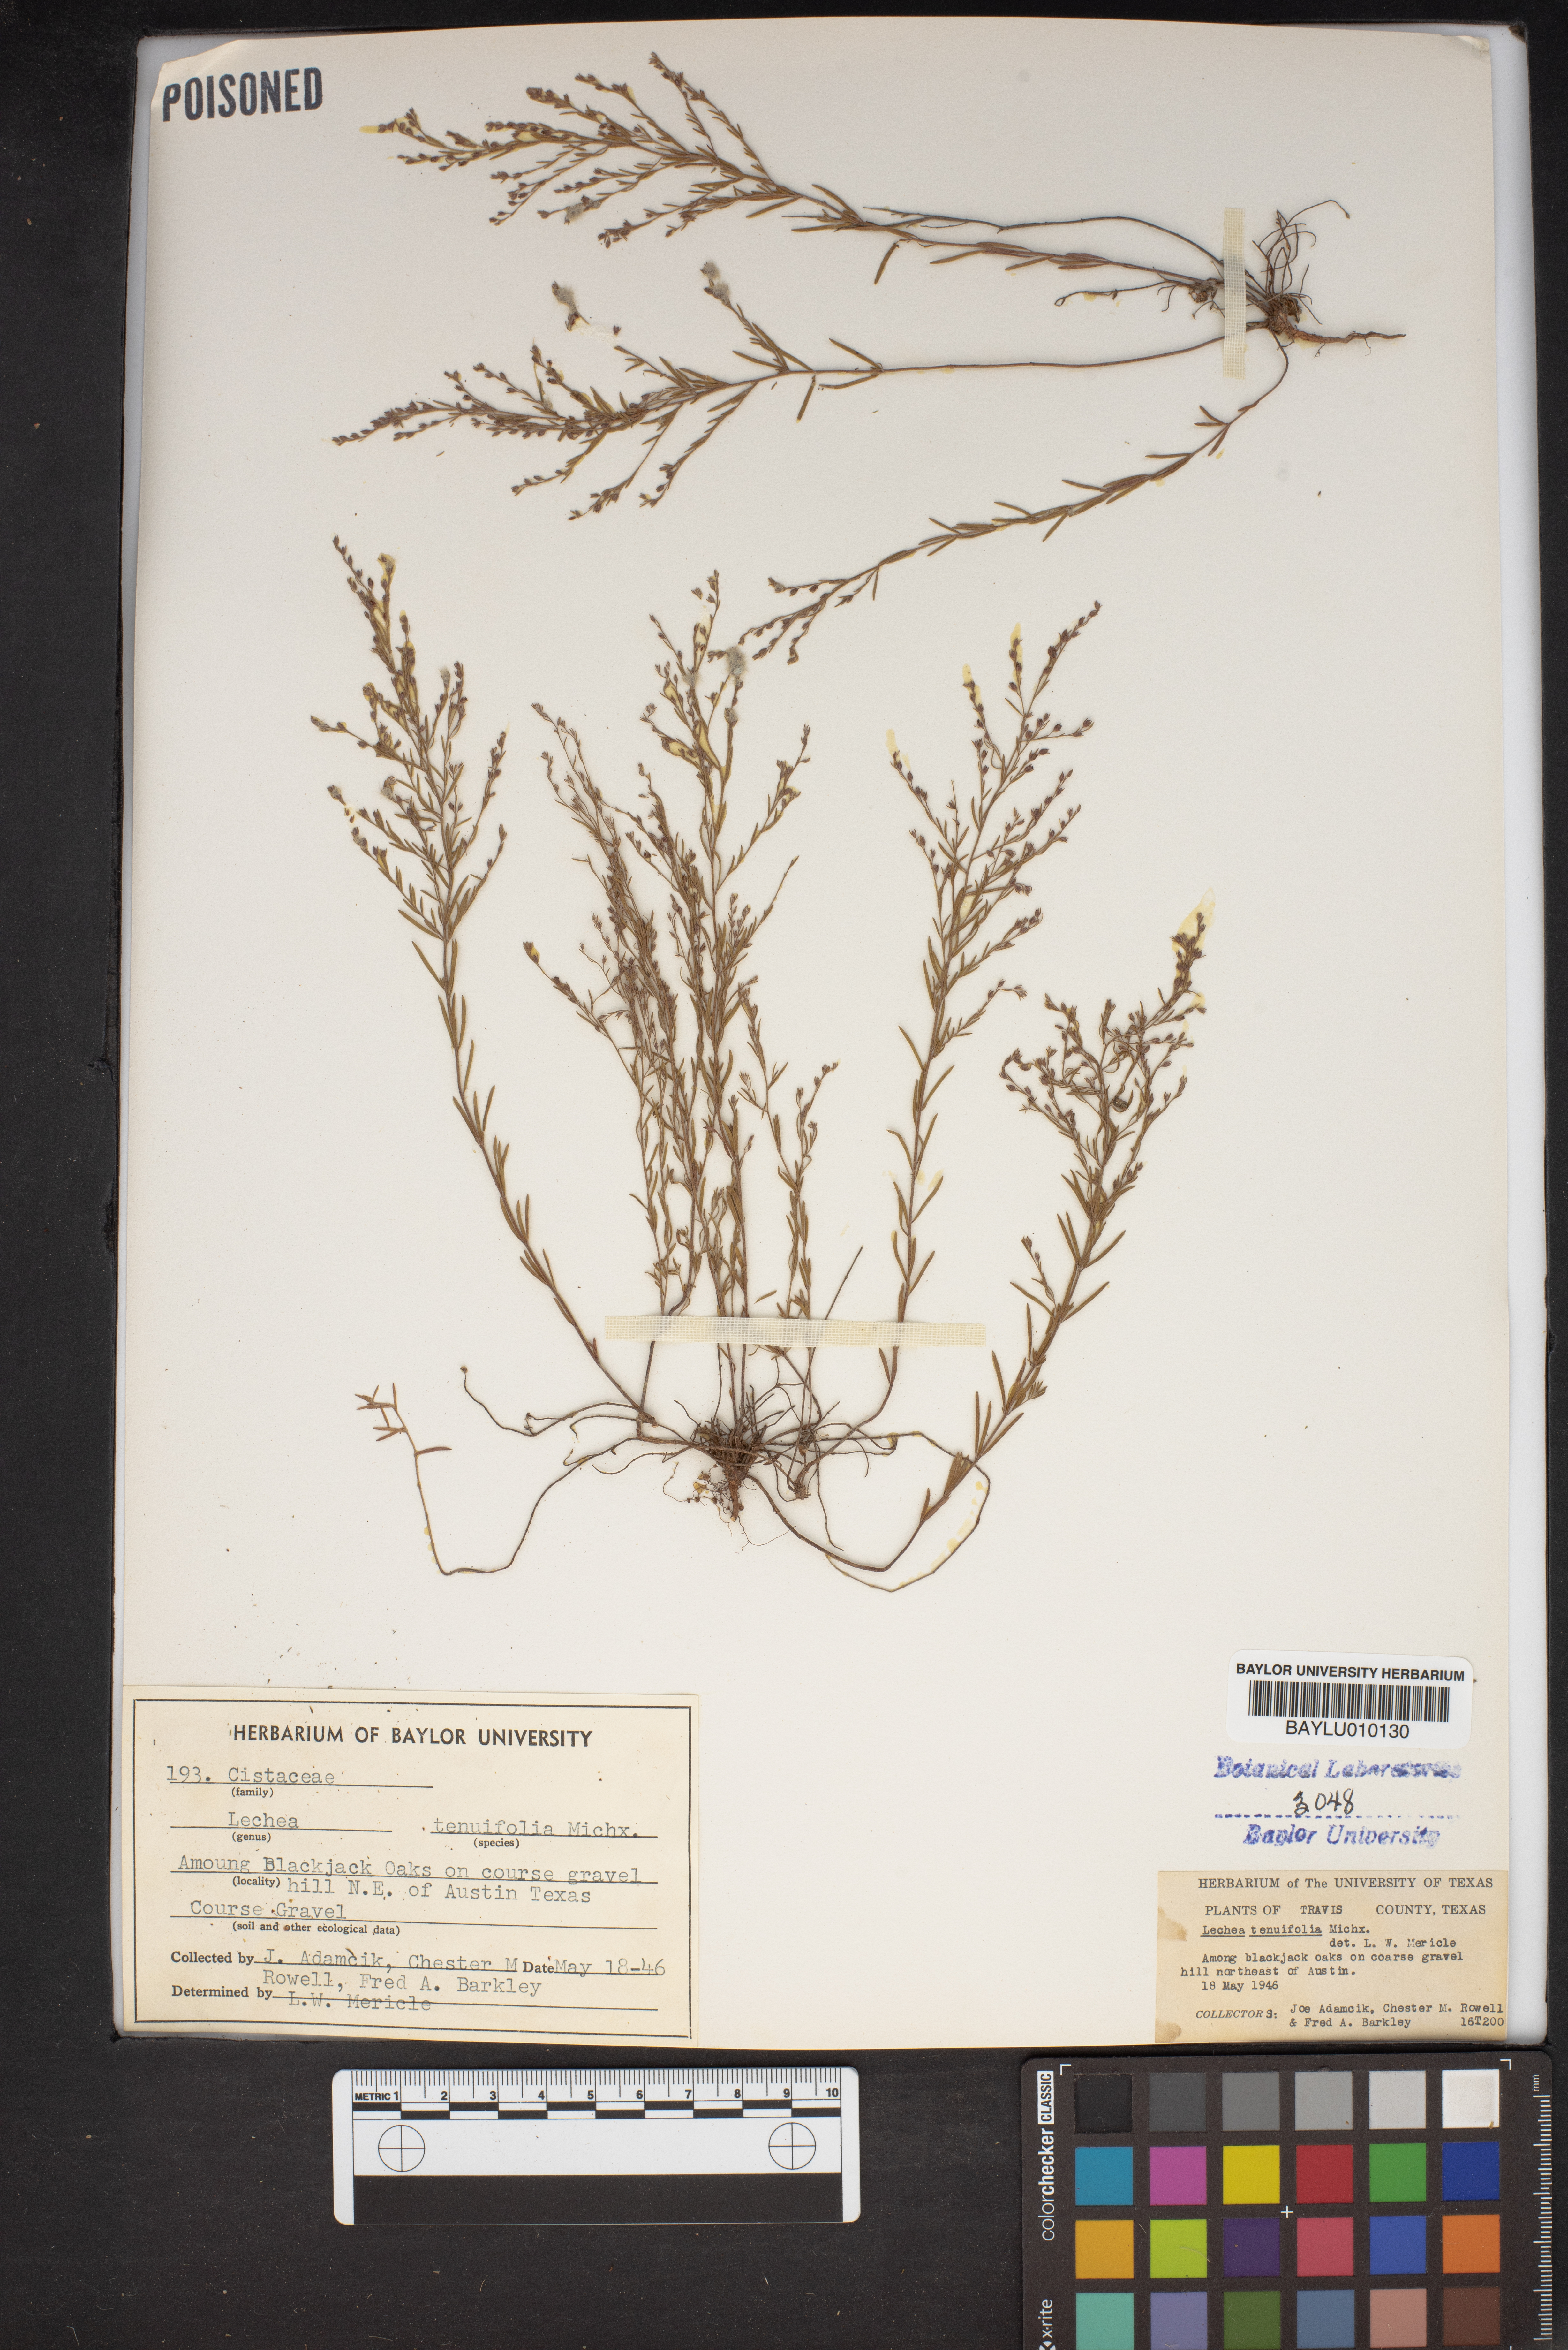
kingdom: Plantae
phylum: Tracheophyta
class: Magnoliopsida
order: Malvales
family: Cistaceae
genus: Lechea
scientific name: Lechea tenuifolia
